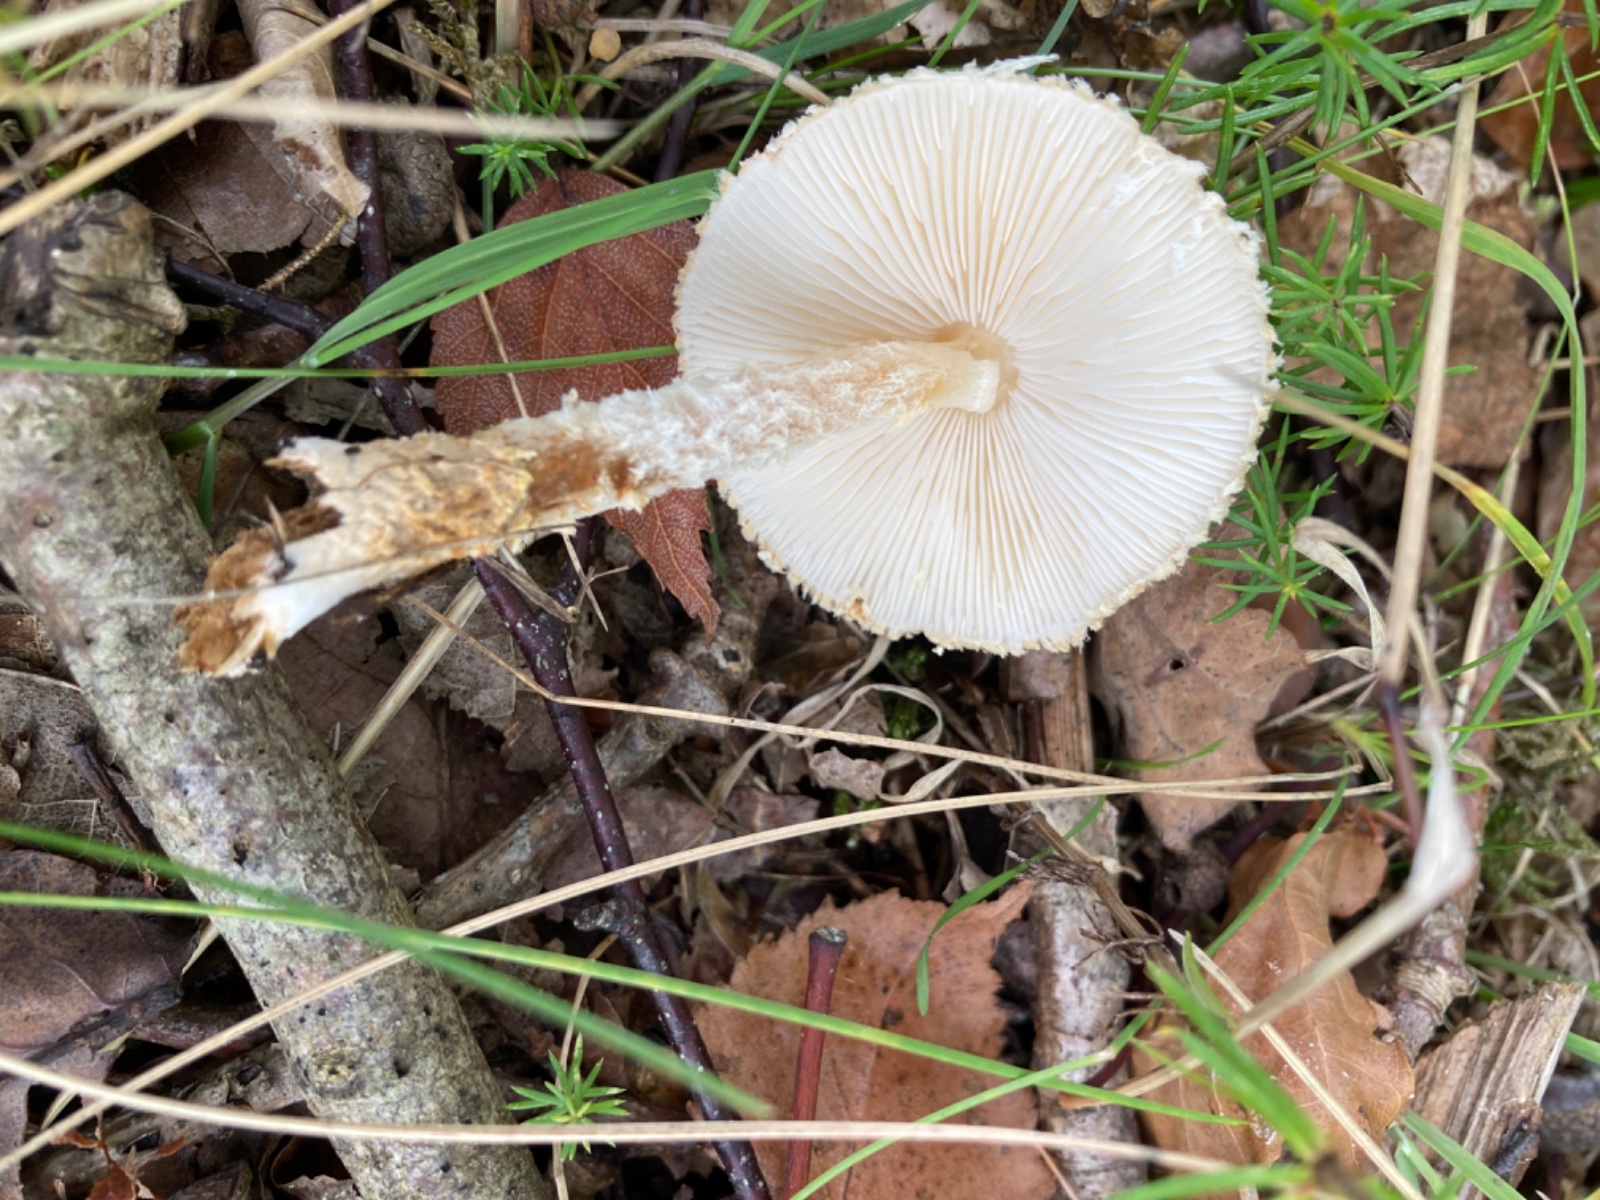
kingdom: Fungi
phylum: Basidiomycota
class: Agaricomycetes
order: Agaricales
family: Agaricaceae
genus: Lepiota
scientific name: Lepiota magnispora
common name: gulfnugget parasolhat
